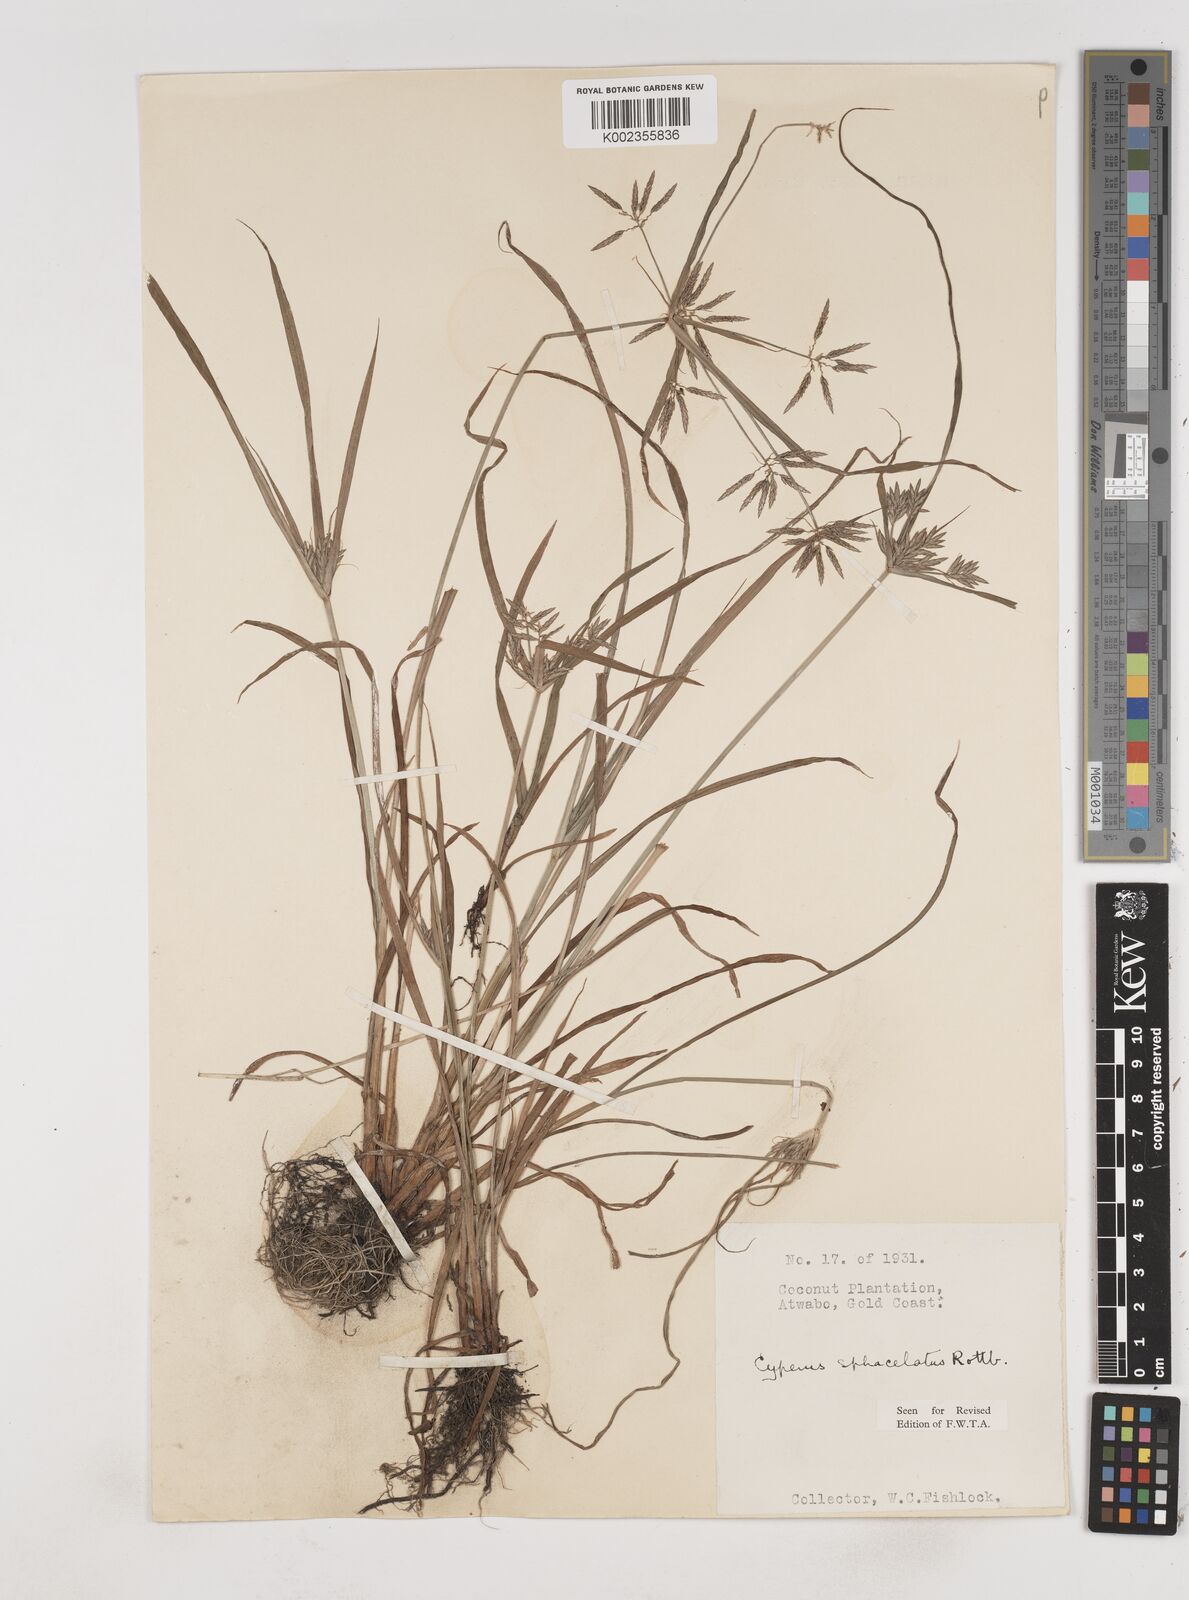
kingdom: Plantae
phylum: Tracheophyta
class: Liliopsida
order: Poales
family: Cyperaceae
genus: Cyperus
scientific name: Cyperus sphacelatus
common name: Roadside flatsedge
